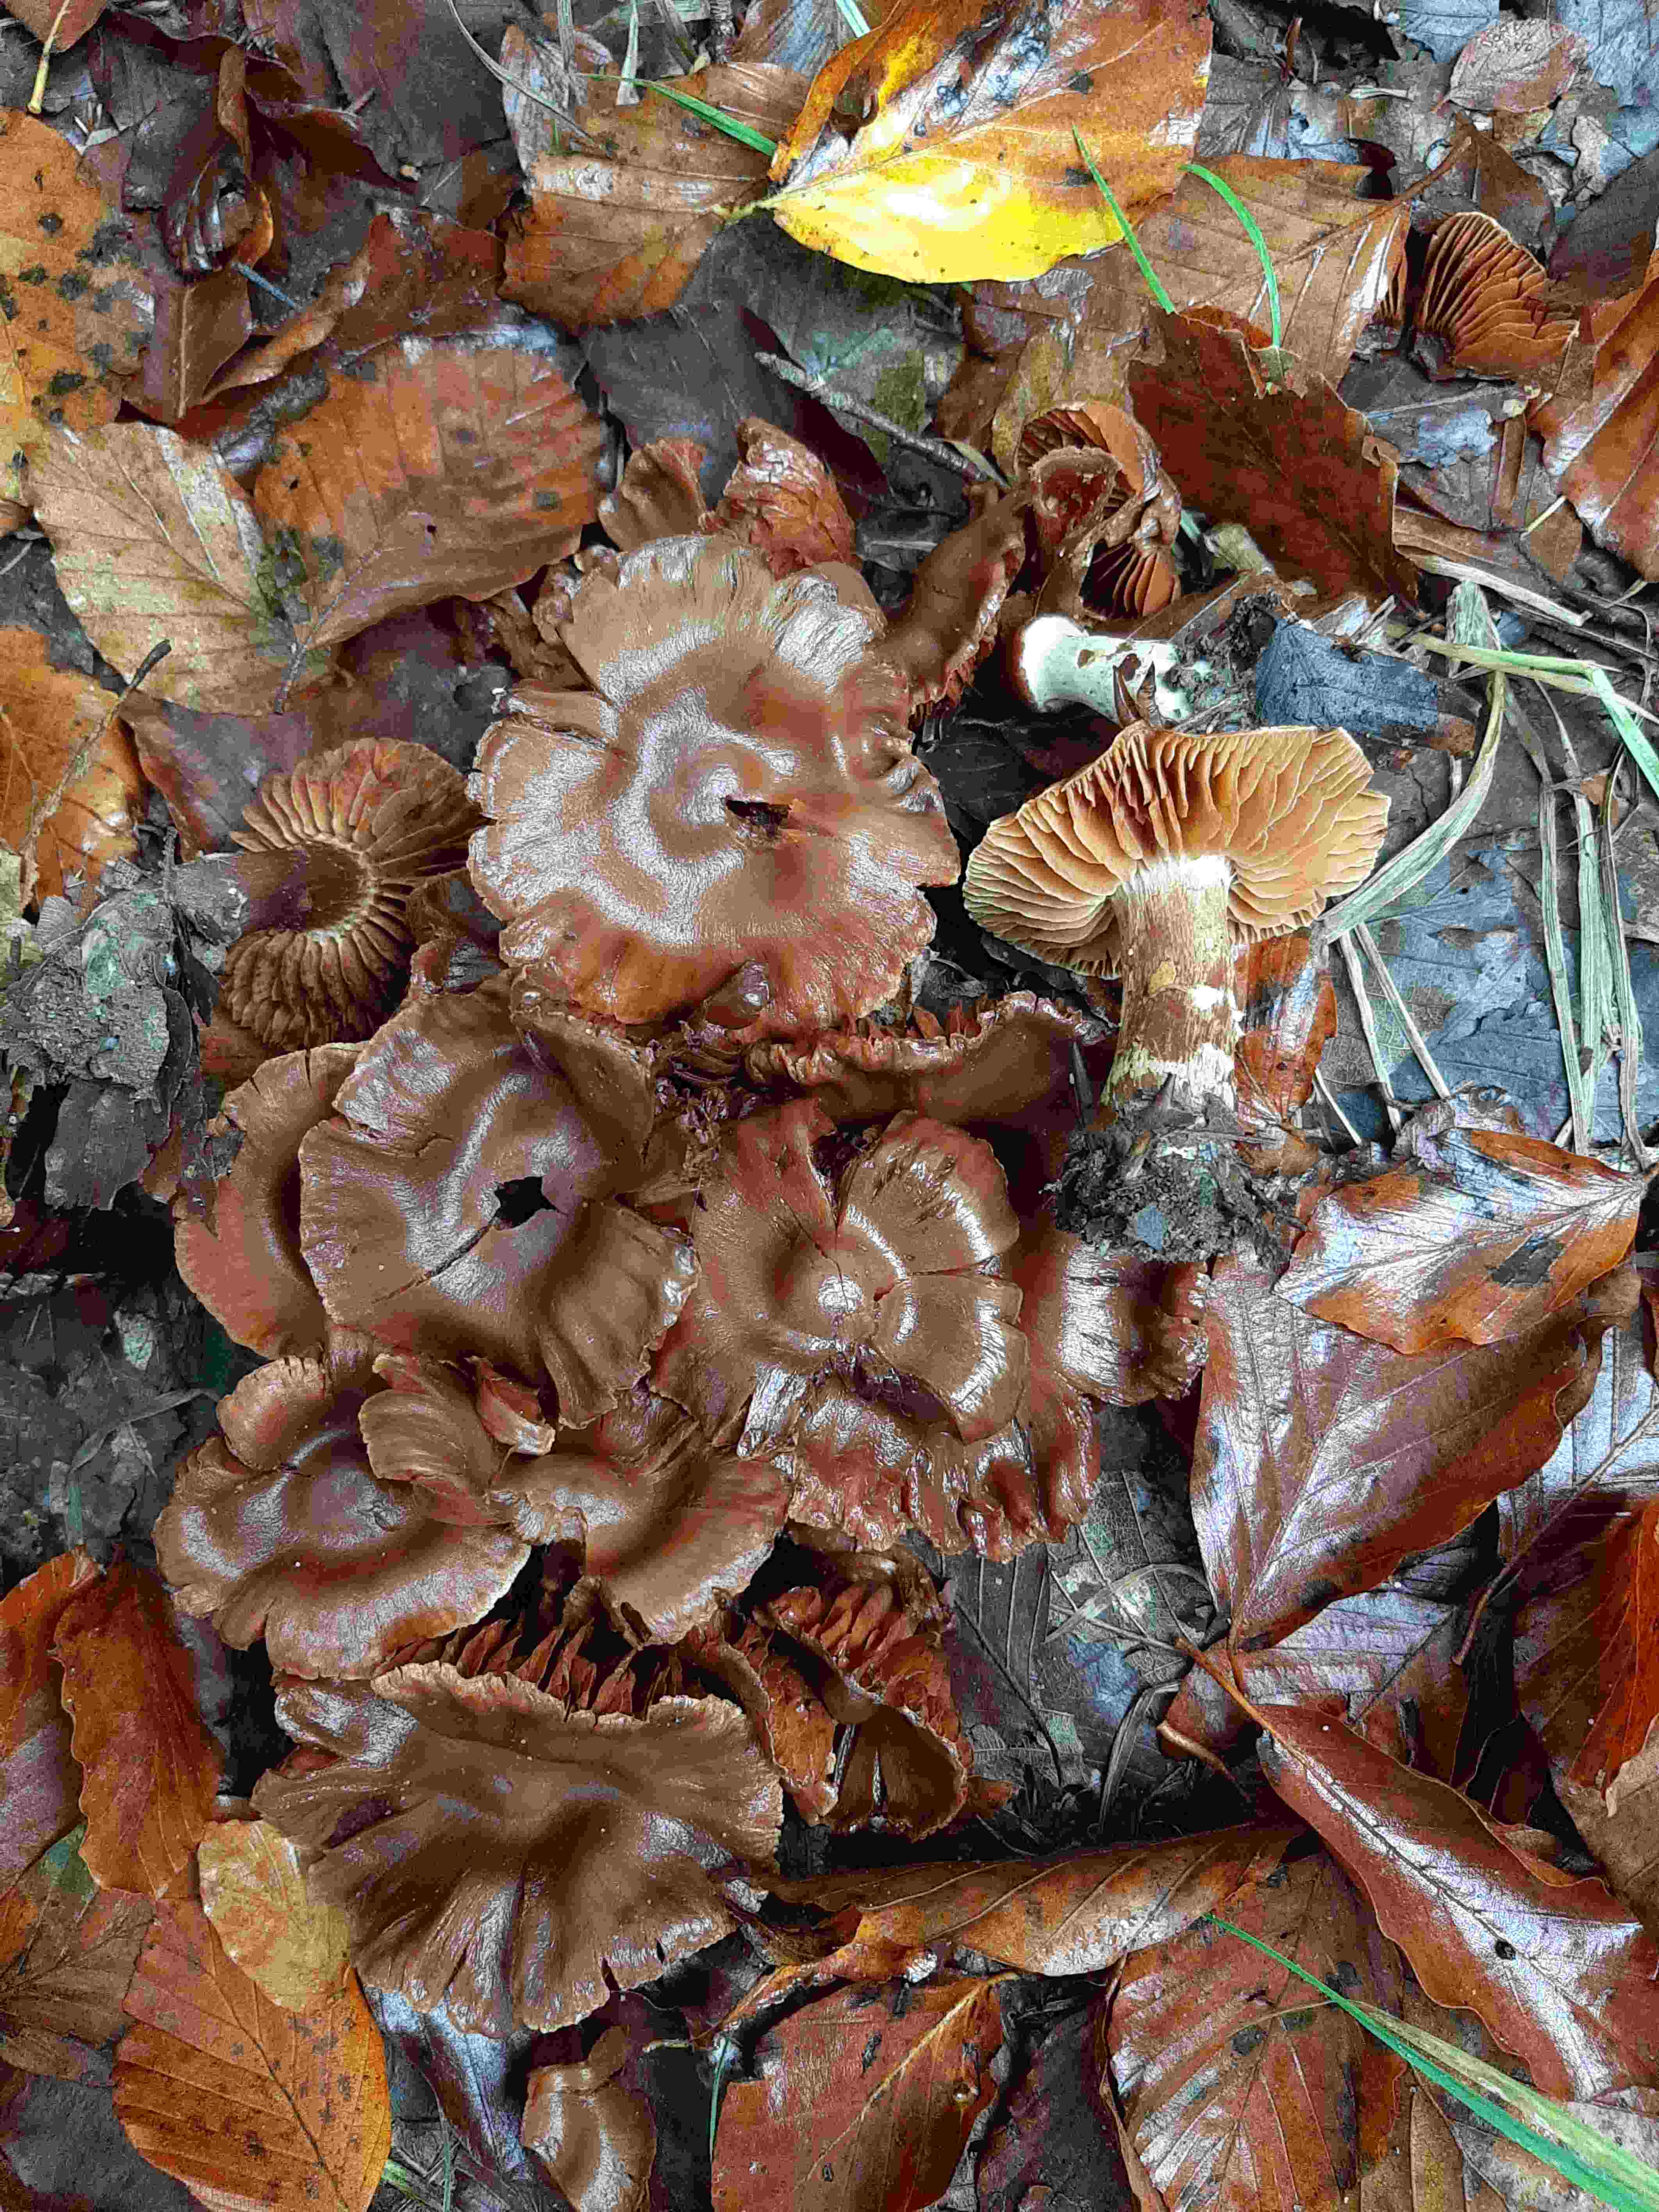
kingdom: Fungi
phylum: Basidiomycota
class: Agaricomycetes
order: Agaricales
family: Cortinariaceae
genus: Cortinarius
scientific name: Cortinarius
